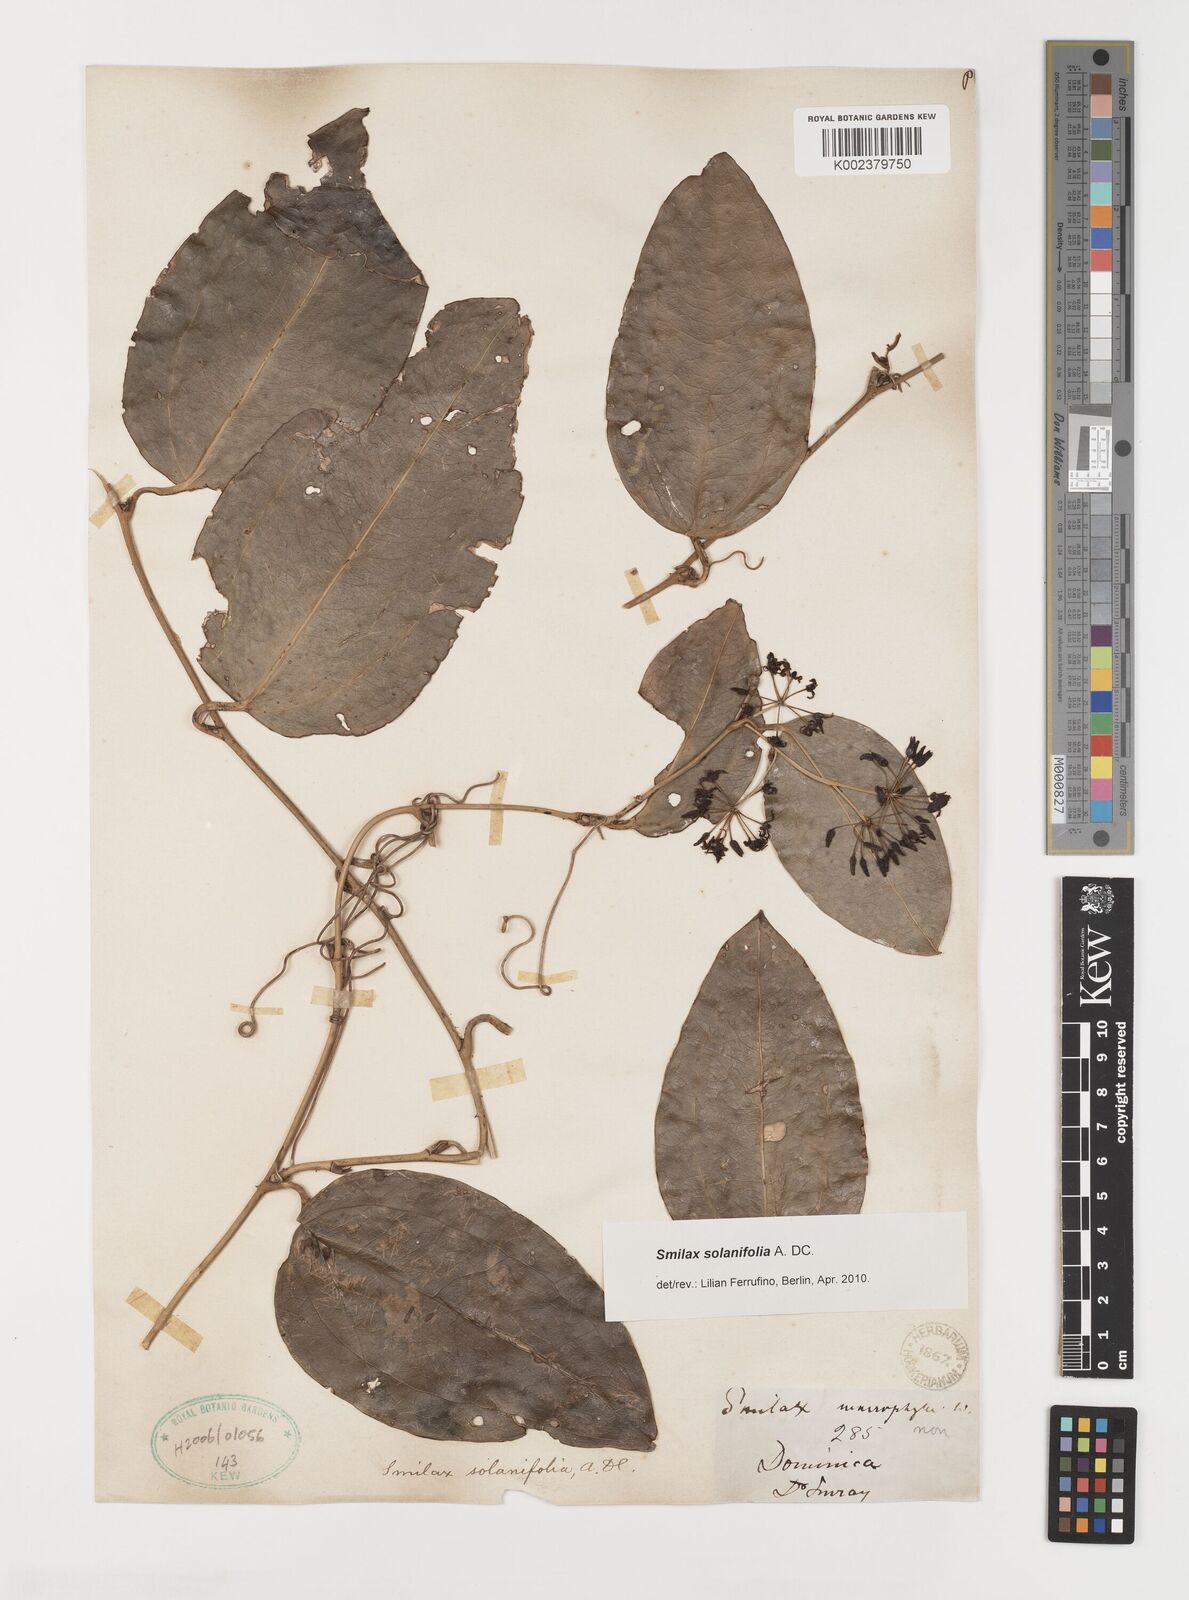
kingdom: Plantae
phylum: Tracheophyta
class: Liliopsida
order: Liliales
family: Smilacaceae
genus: Smilax
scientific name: Smilax solanifolia
